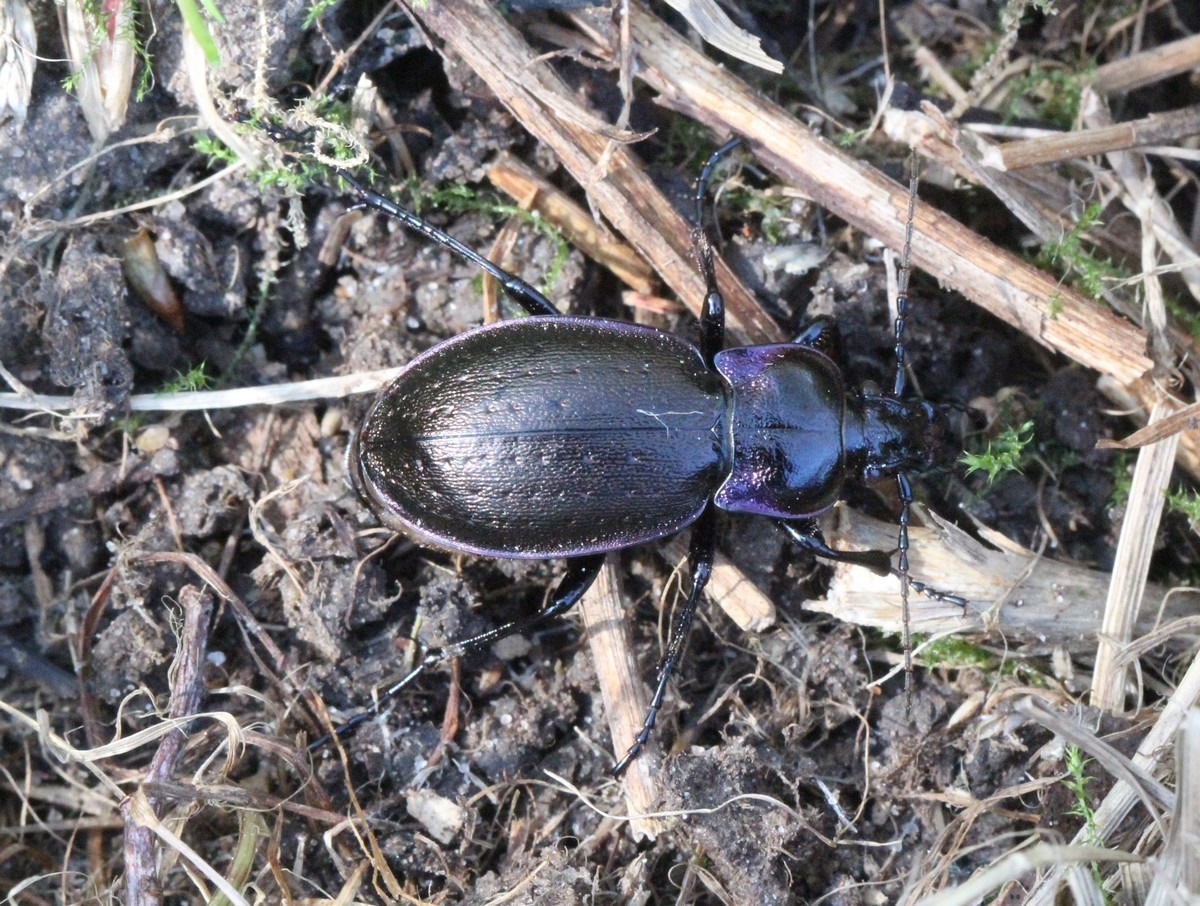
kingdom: Animalia
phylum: Arthropoda
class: Insecta
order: Coleoptera
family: Carabidae
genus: Carabus
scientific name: Carabus nemoralis
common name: Kratløber
